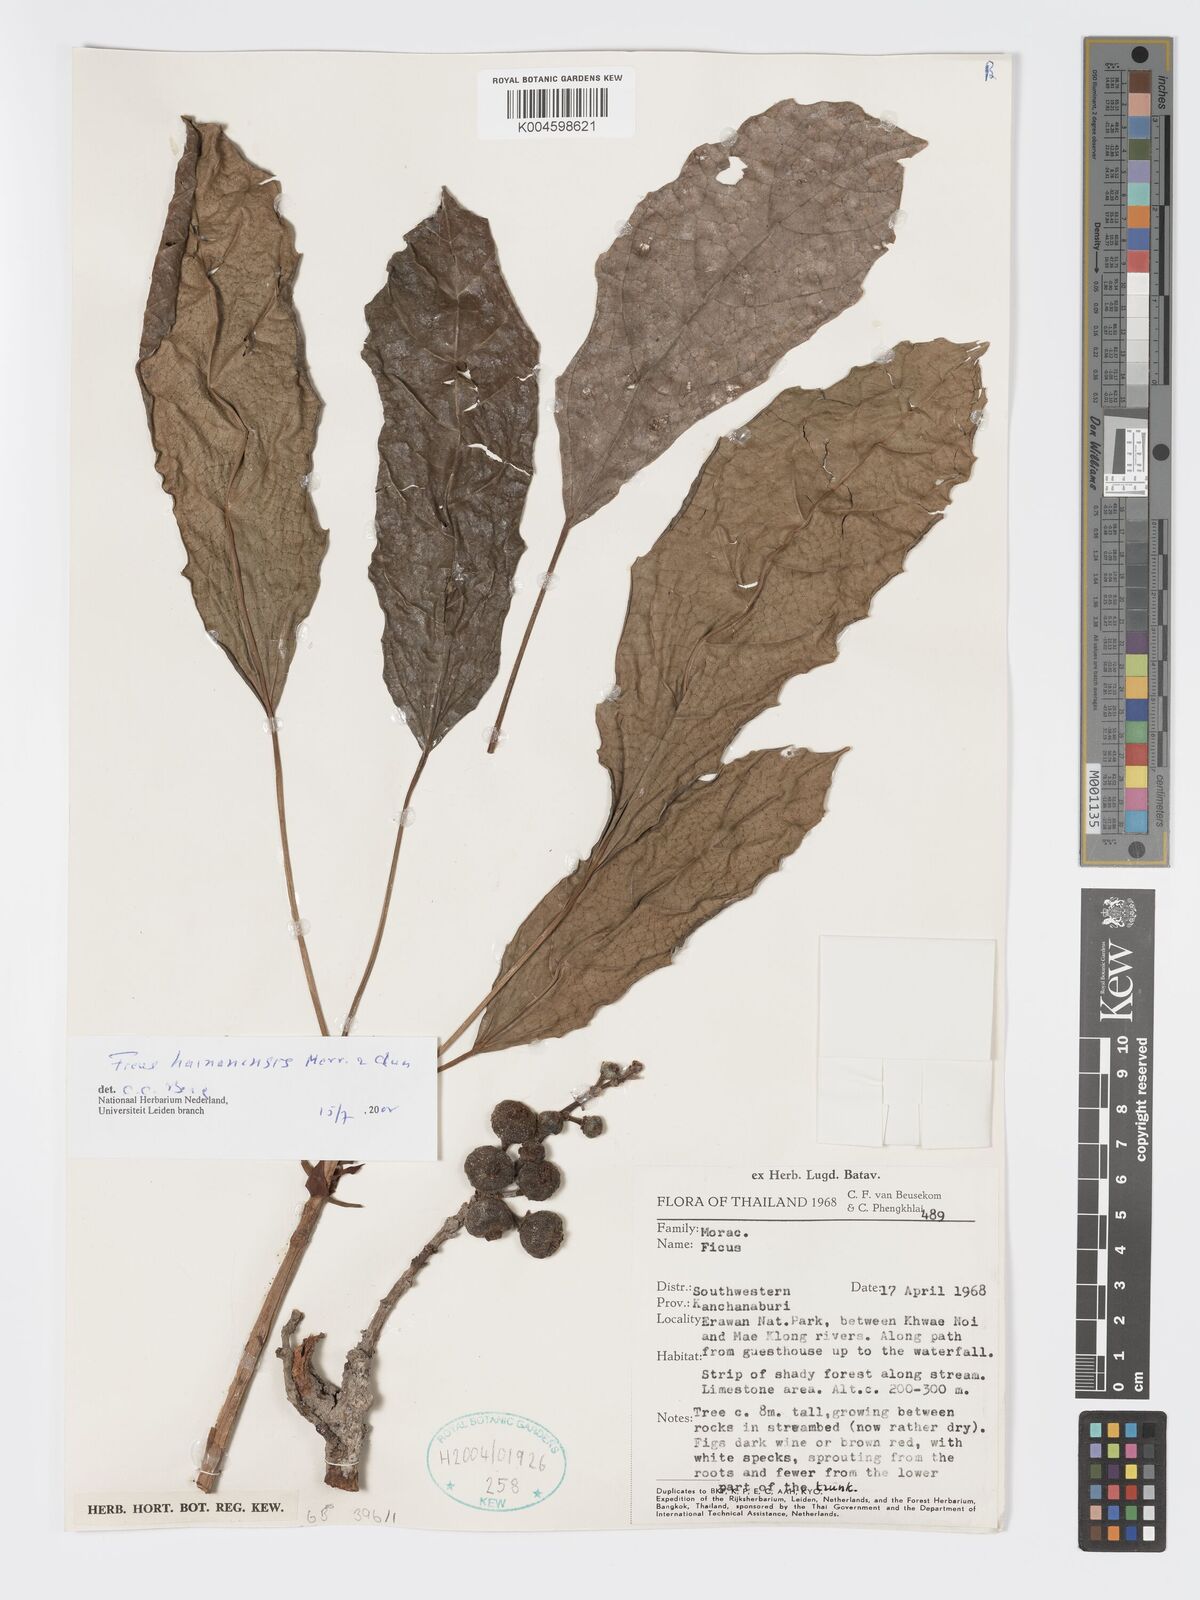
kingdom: Plantae
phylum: Tracheophyta
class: Magnoliopsida
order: Rosales
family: Moraceae
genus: Ficus
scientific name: Ficus auriculata
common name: Roxburgh fig
